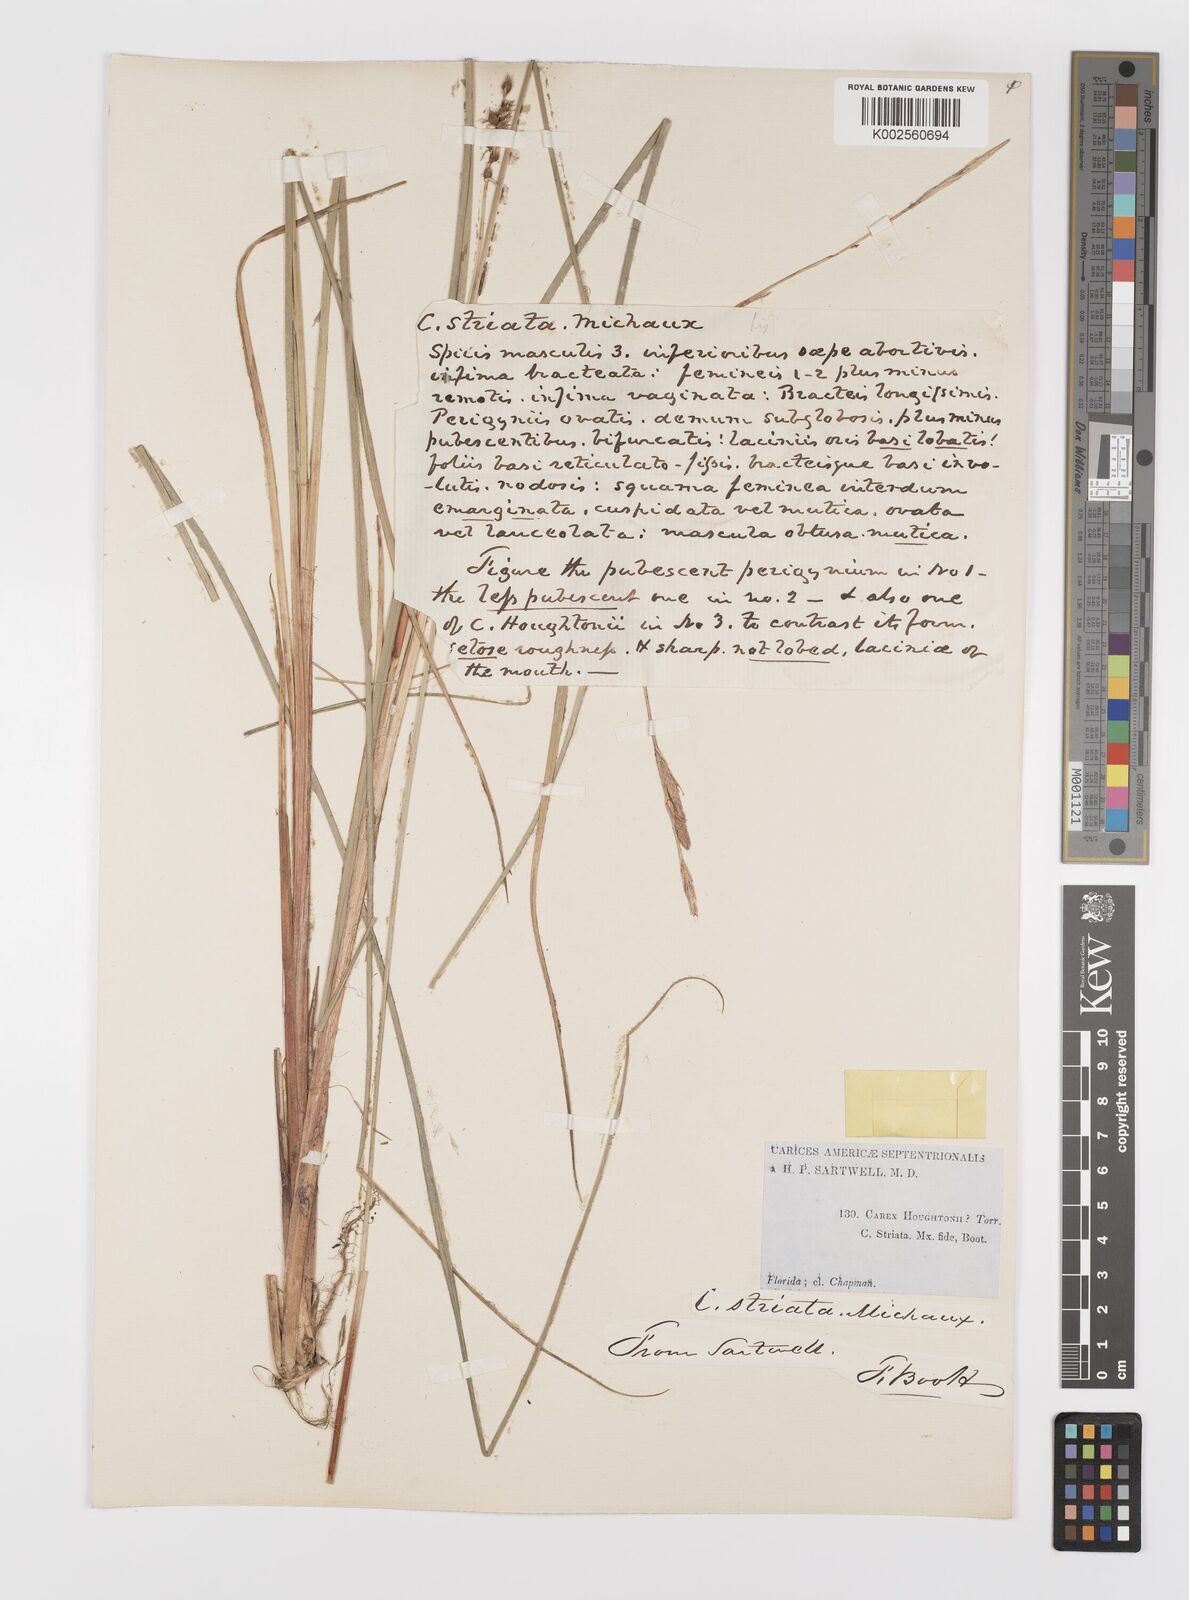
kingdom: Plantae
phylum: Tracheophyta
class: Liliopsida
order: Poales
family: Cyperaceae
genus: Carex
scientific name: Carex striata
